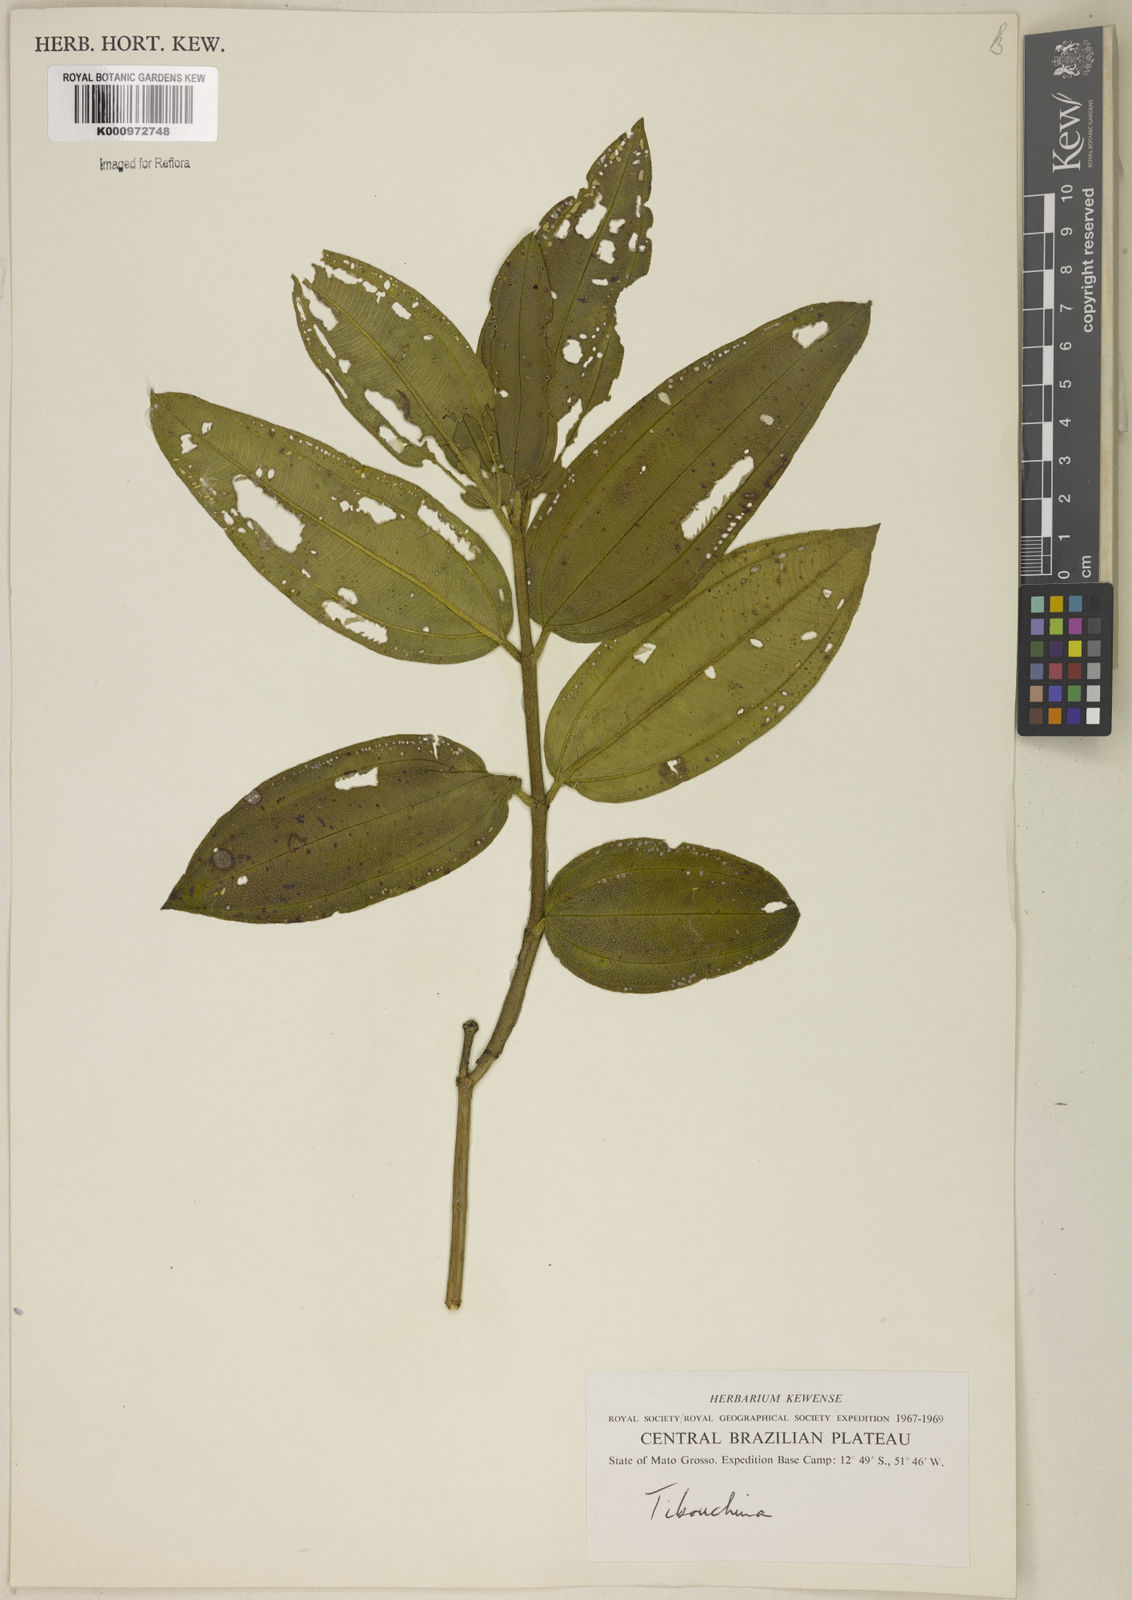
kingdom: Plantae
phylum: Tracheophyta
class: Magnoliopsida
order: Myrtales
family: Melastomataceae
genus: Pleroma
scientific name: Pleroma aegopogon
